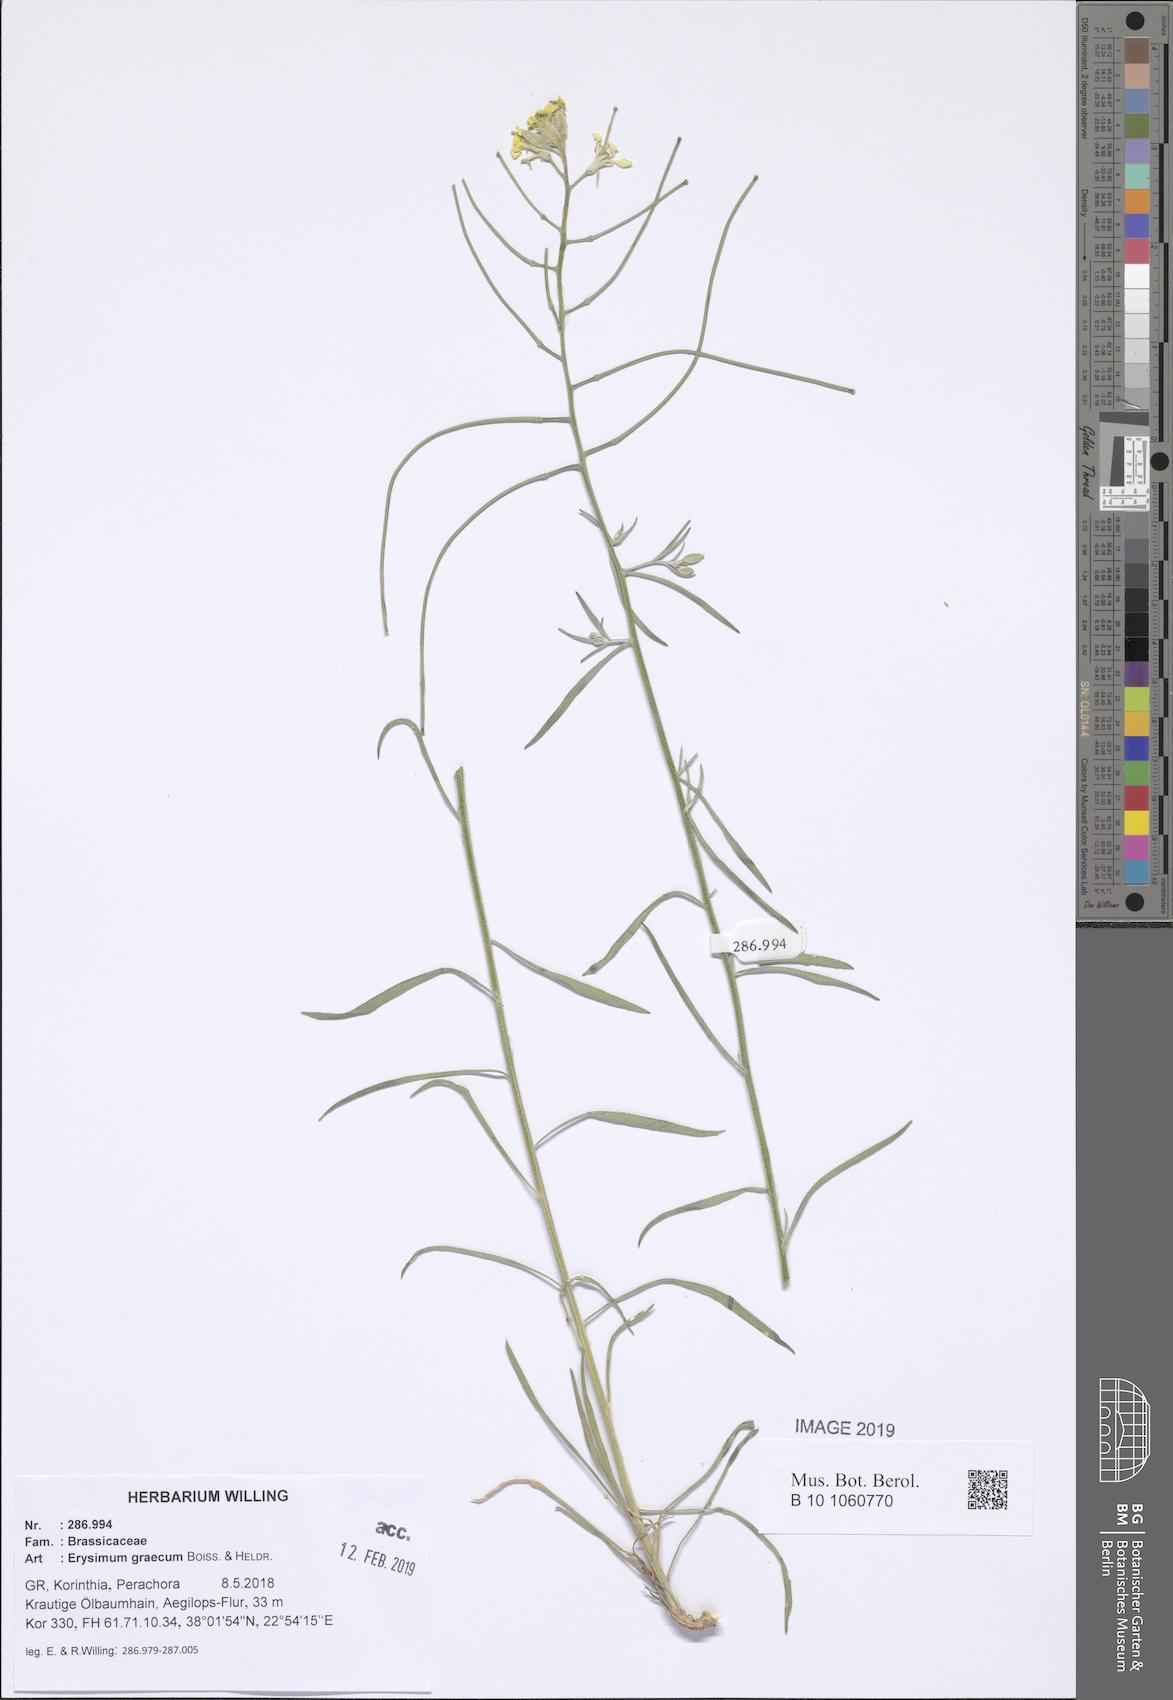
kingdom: Plantae
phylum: Tracheophyta
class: Magnoliopsida
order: Brassicales
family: Brassicaceae
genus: Erysimum
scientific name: Erysimum graecum
